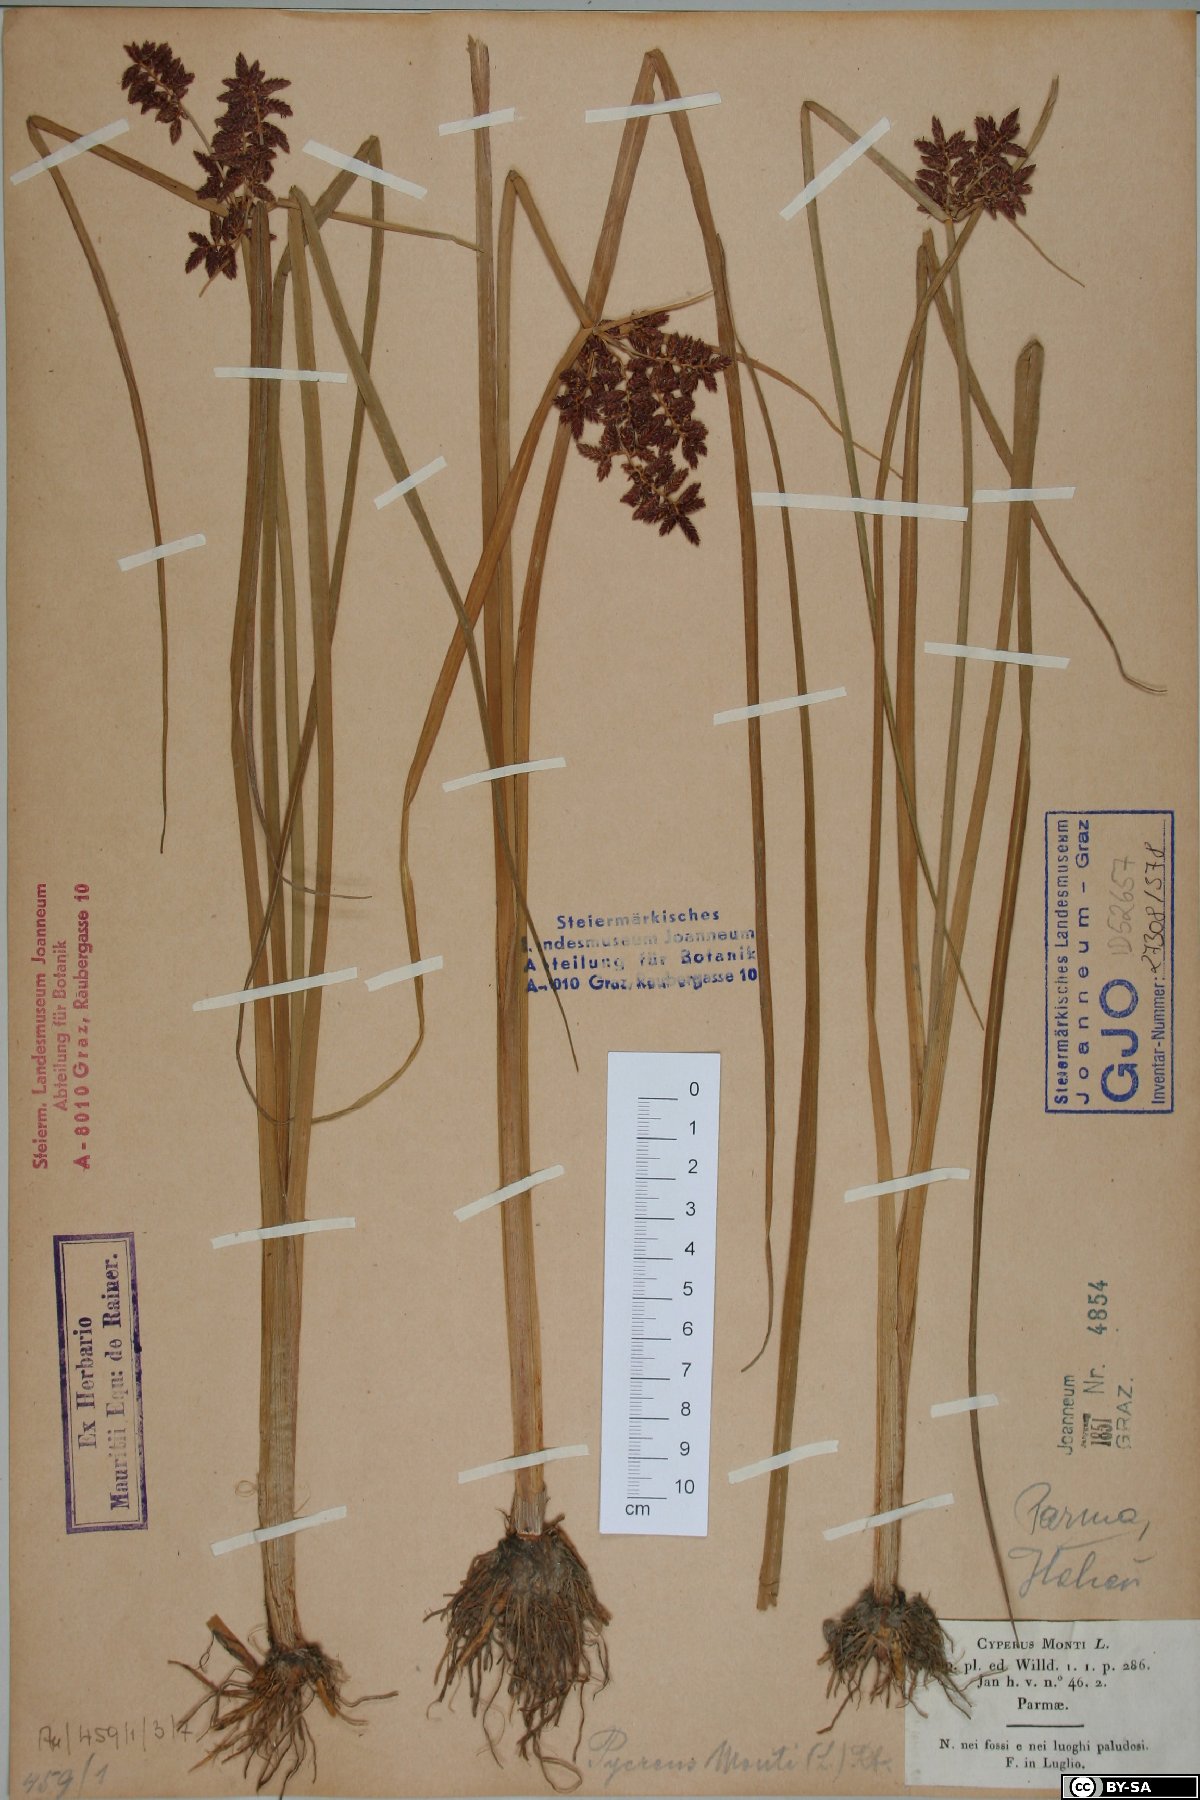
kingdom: Plantae
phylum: Tracheophyta
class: Liliopsida
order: Poales
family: Cyperaceae
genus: Cyperus
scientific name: Cyperus serotinus
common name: Tidalmarsh flatsedge
